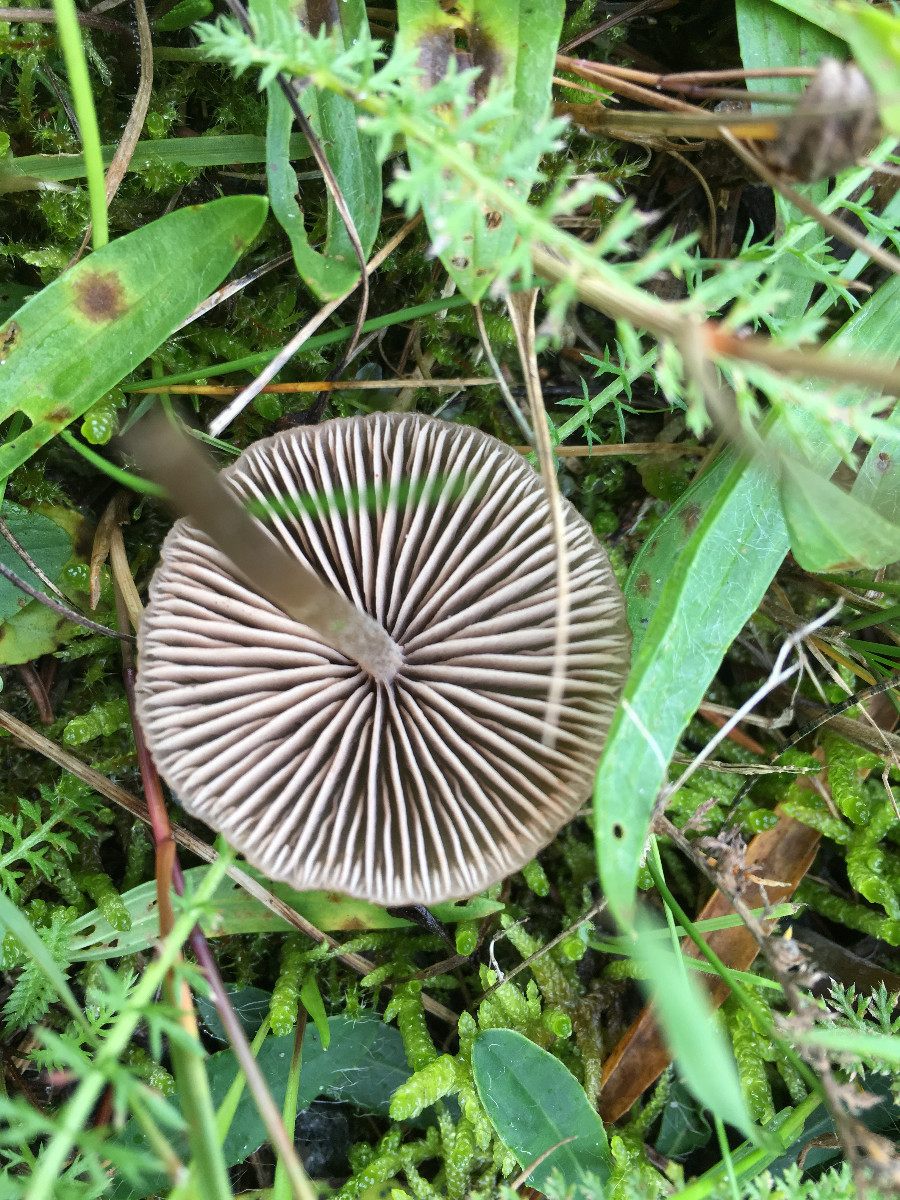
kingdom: Fungi
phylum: Basidiomycota
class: Agaricomycetes
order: Agaricales
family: Entolomataceae
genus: Entoloma
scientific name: Entoloma
